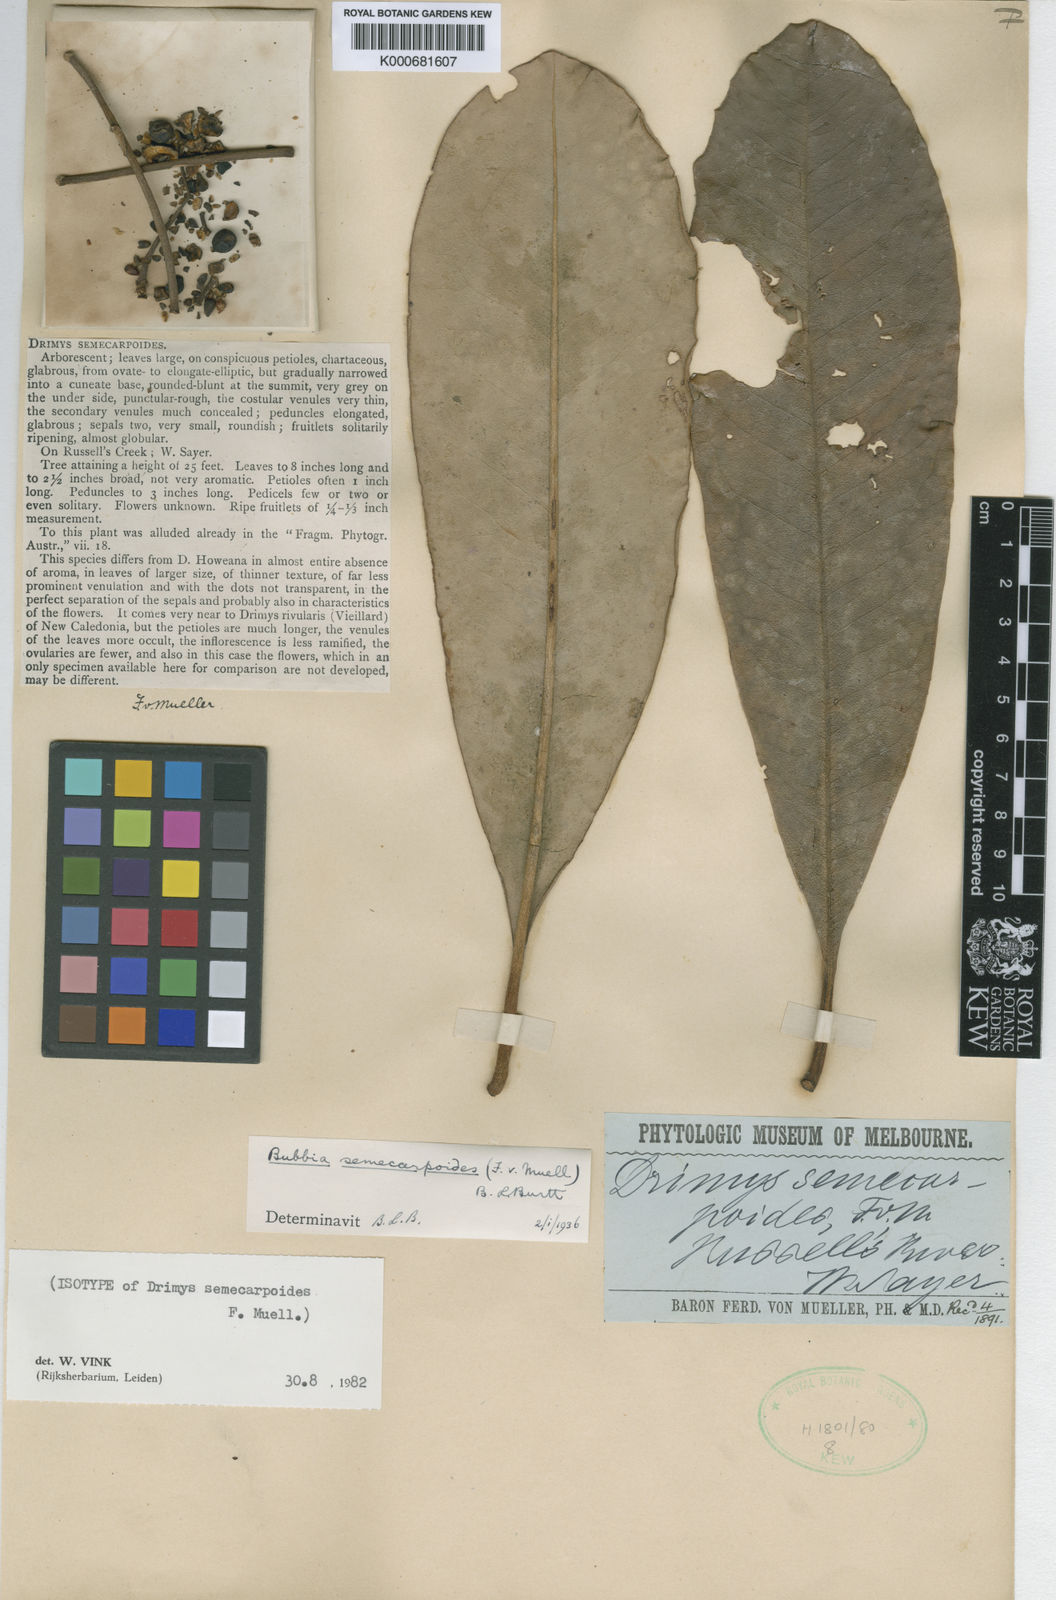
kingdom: Plantae
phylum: Tracheophyta
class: Magnoliopsida
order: Canellales
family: Winteraceae
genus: Zygogynum
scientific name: Zygogynum semecarpoides
